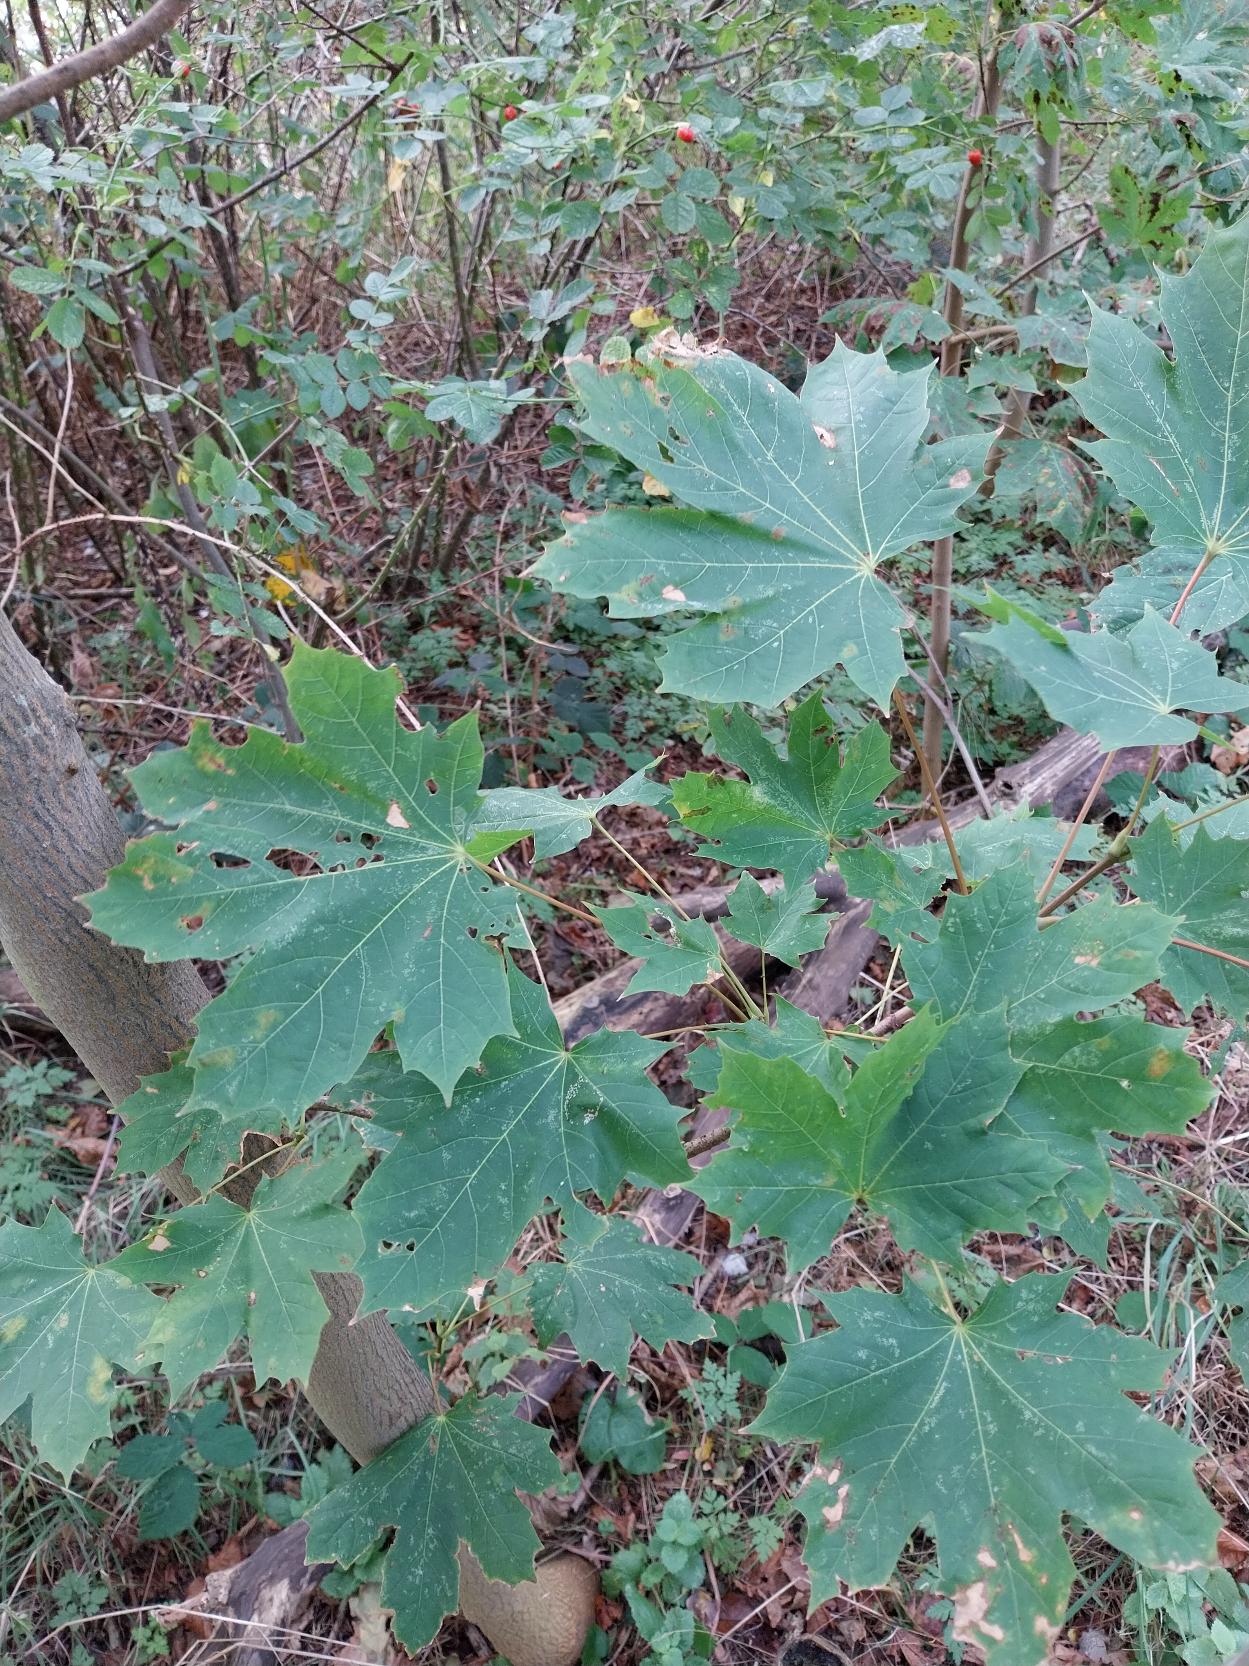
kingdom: Plantae
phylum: Tracheophyta
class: Magnoliopsida
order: Sapindales
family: Sapindaceae
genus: Acer
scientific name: Acer platanoides
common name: Spids-løn
